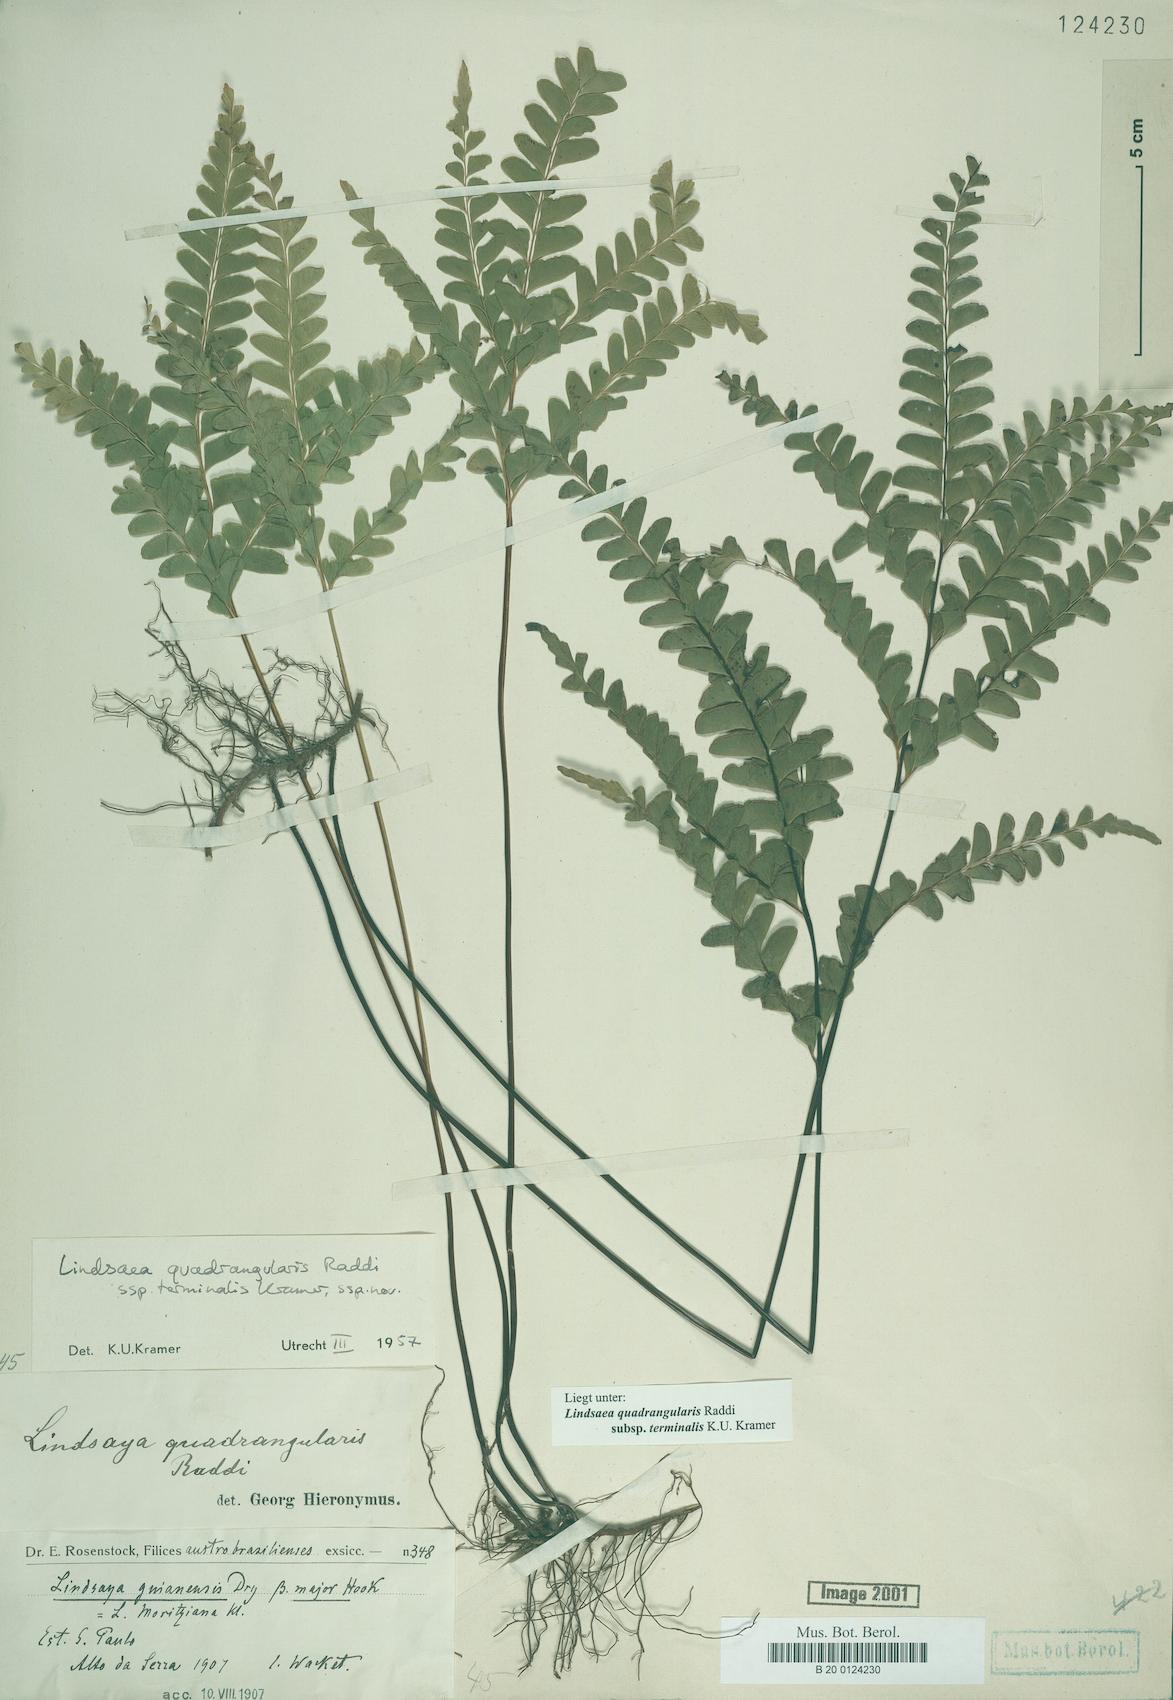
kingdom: Plantae
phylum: Tracheophyta
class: Polypodiopsida
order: Polypodiales
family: Lindsaeaceae
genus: Lindsaea
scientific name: Lindsaea terminalis
